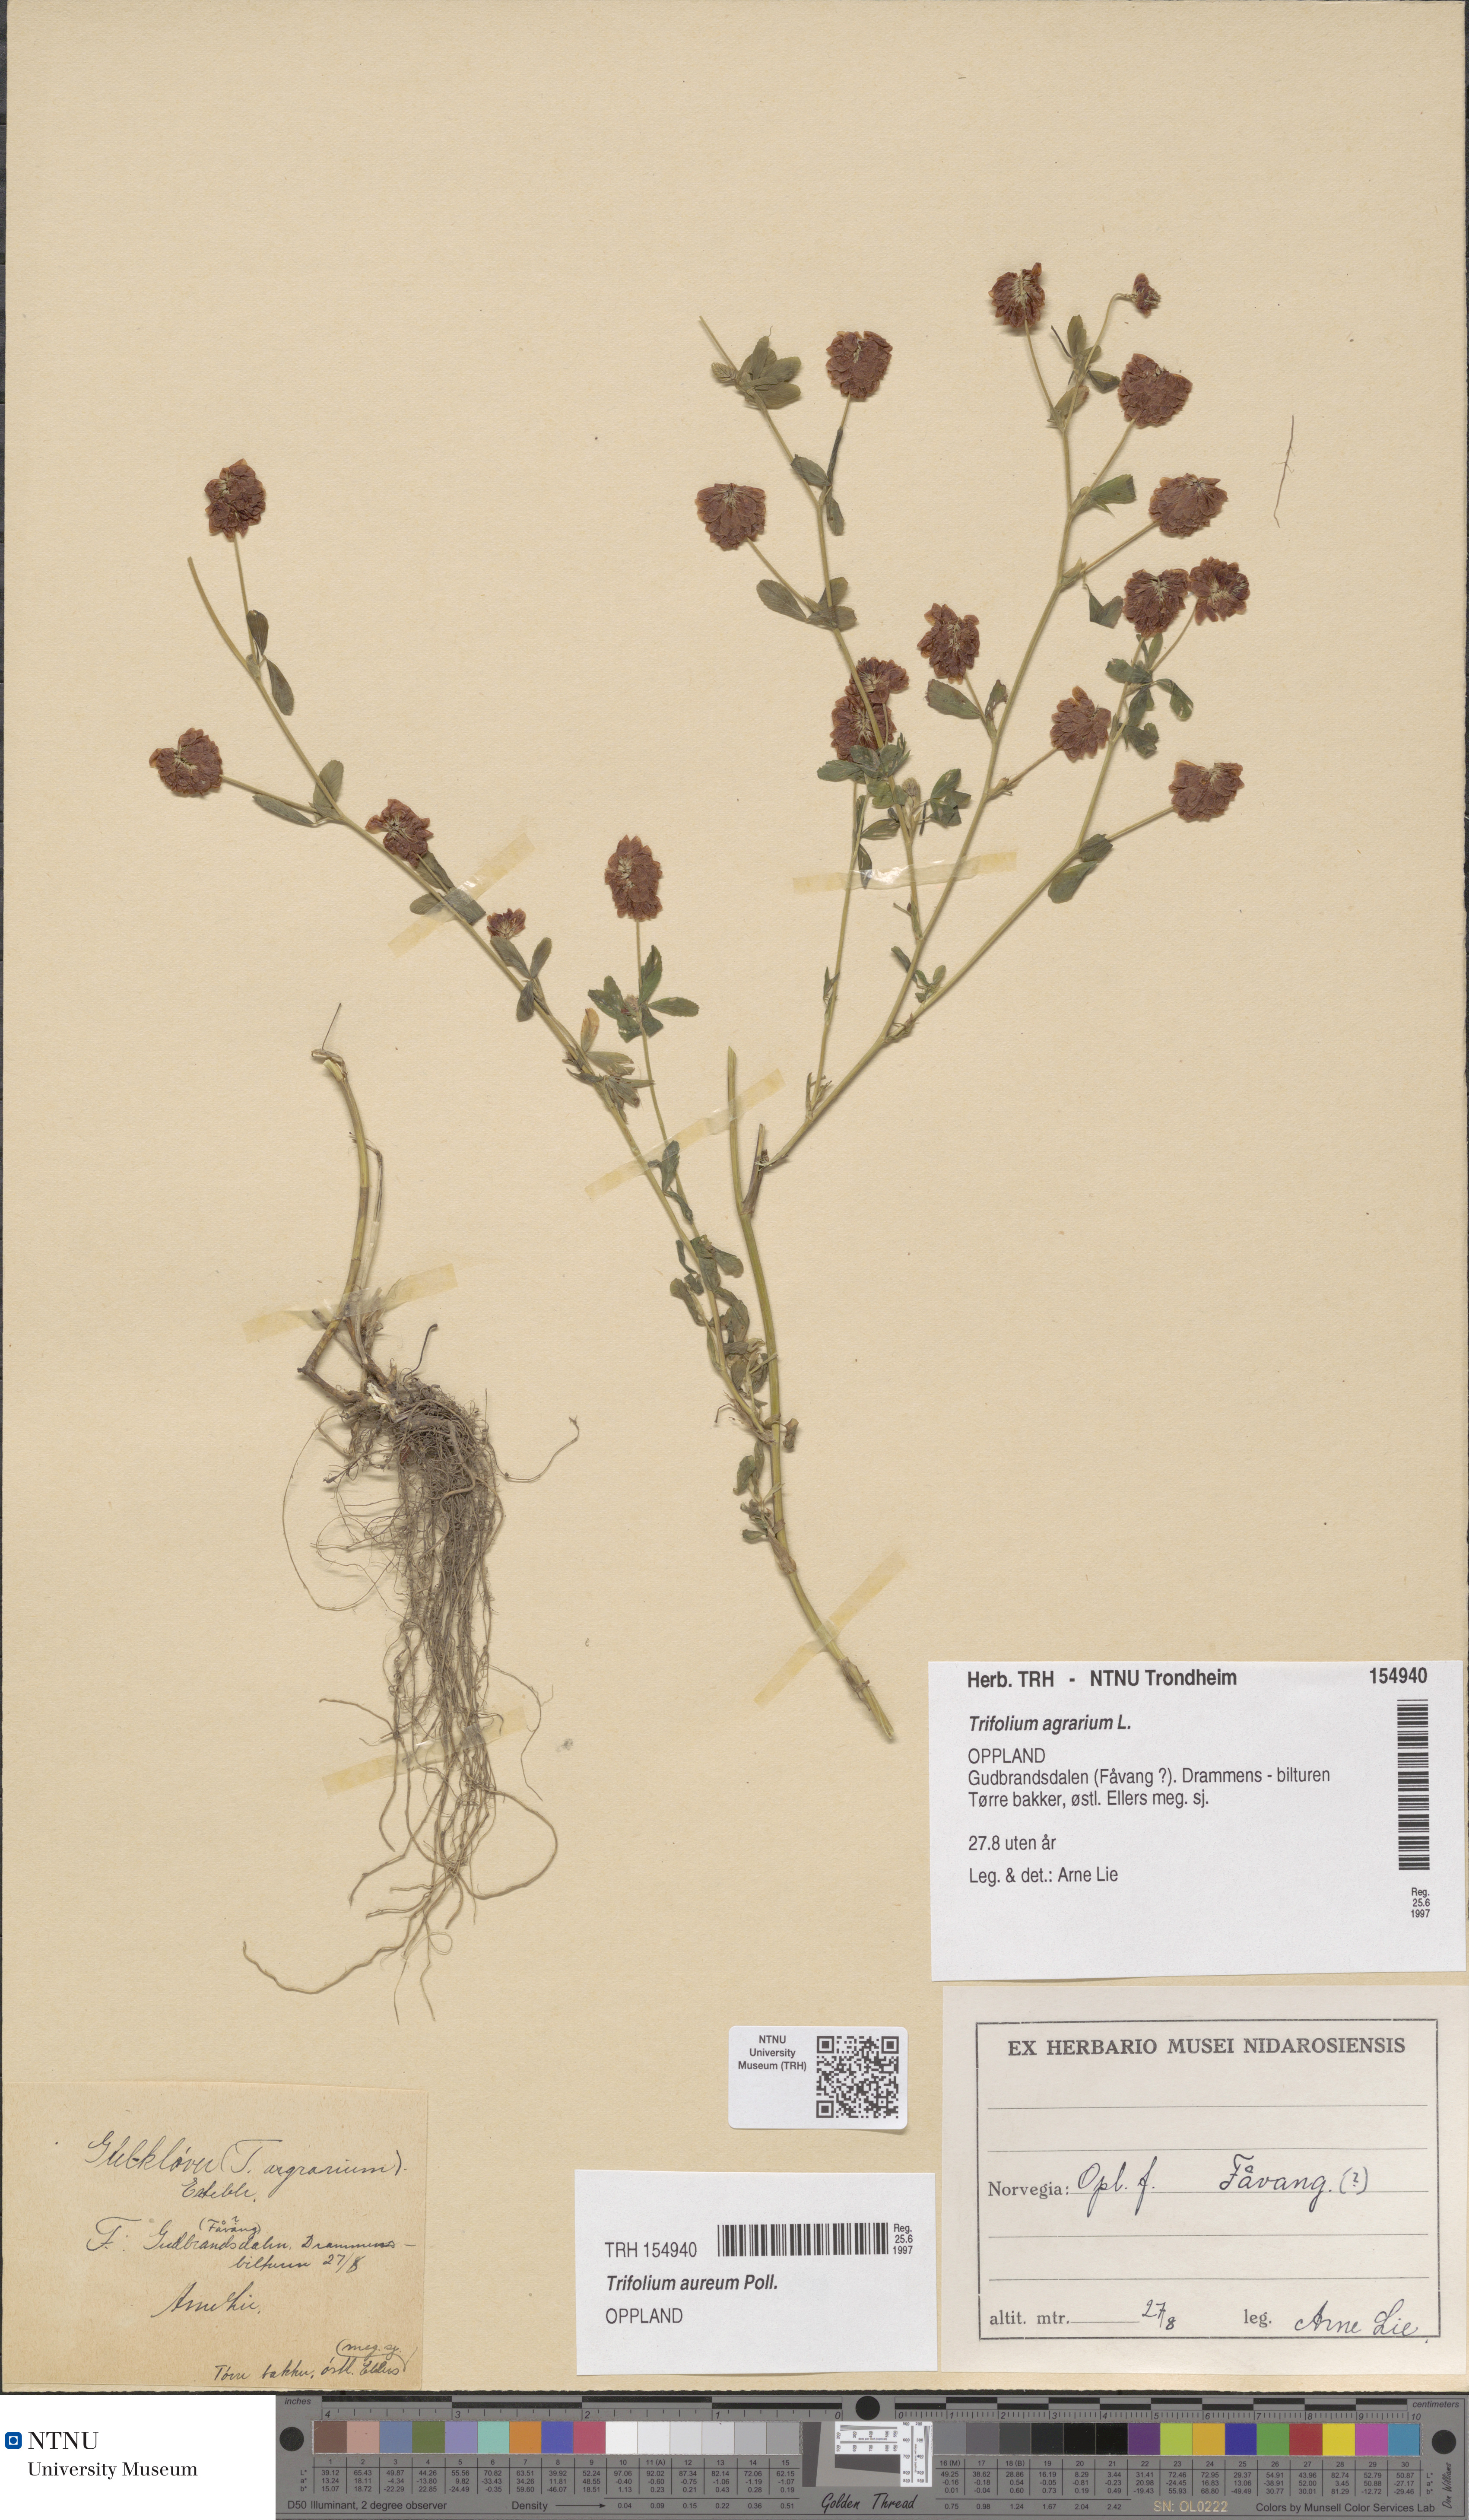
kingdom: Plantae
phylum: Tracheophyta
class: Magnoliopsida
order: Fabales
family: Fabaceae
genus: Trifolium
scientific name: Trifolium aureum
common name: Golden clover
